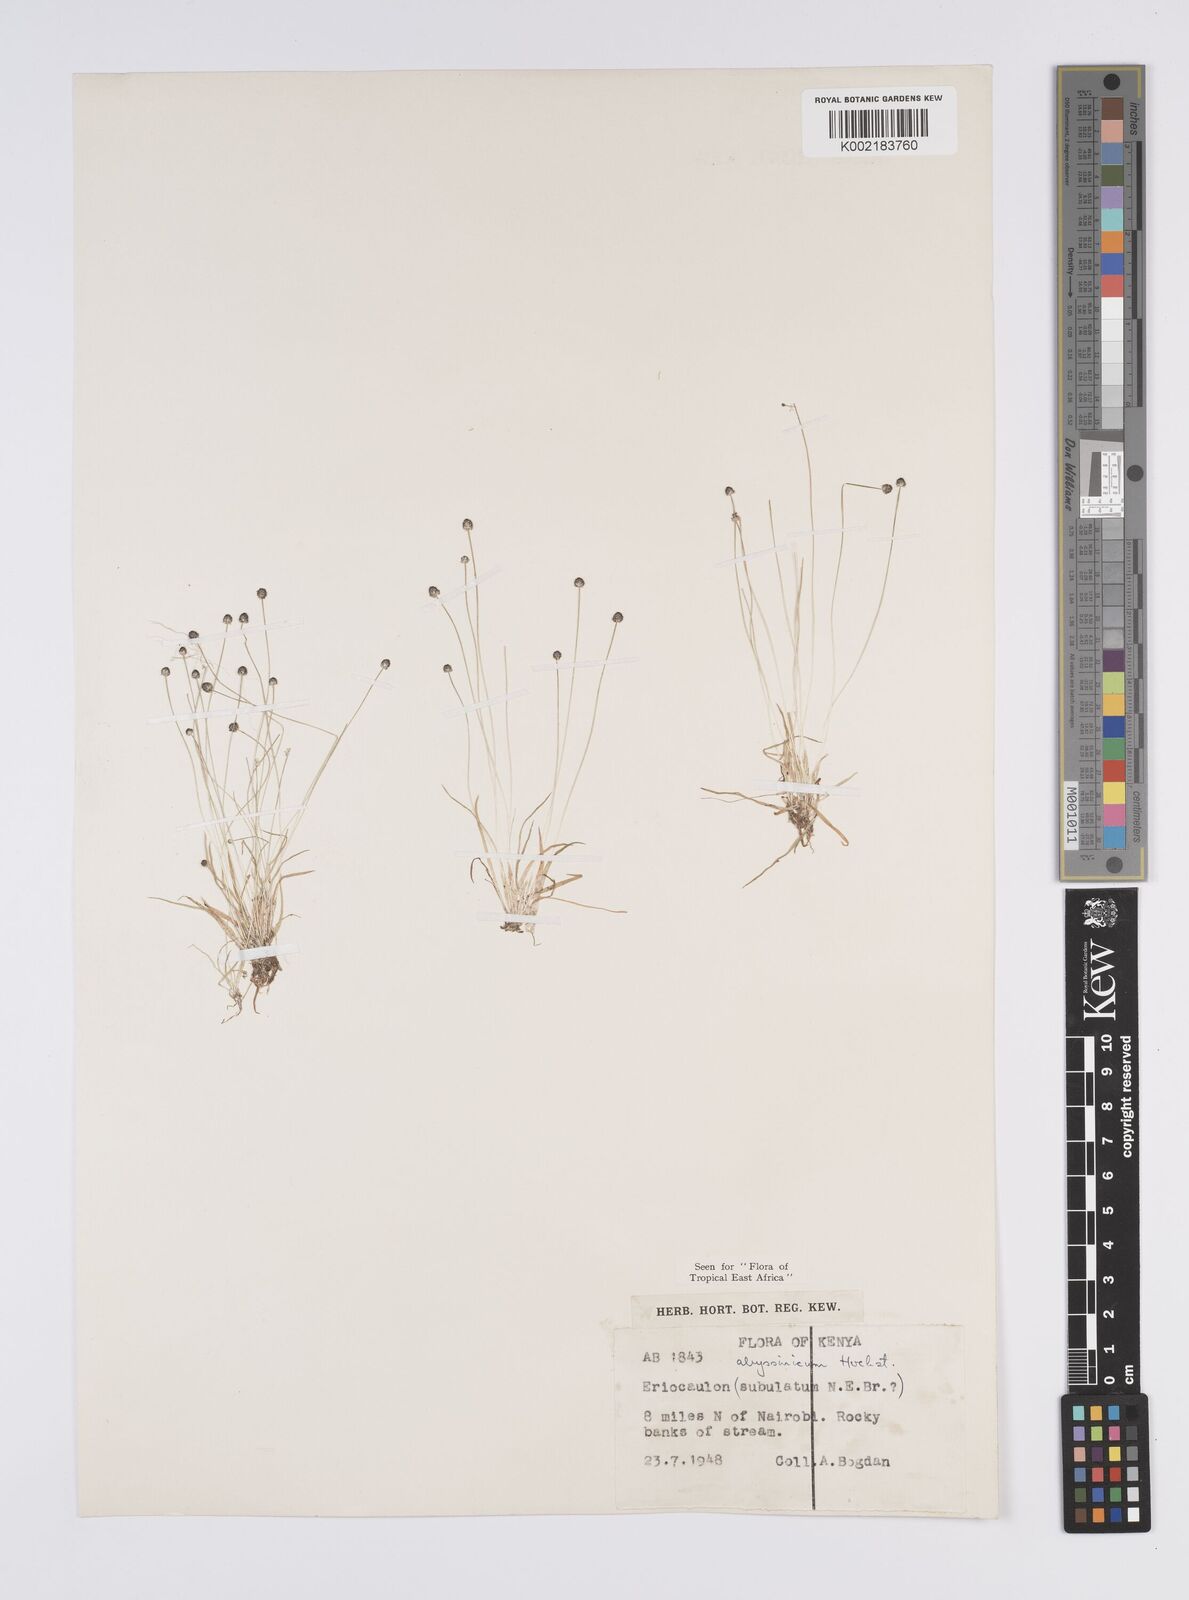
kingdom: Plantae
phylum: Tracheophyta
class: Liliopsida
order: Poales
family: Eriocaulaceae
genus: Eriocaulon
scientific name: Eriocaulon abyssinicum
